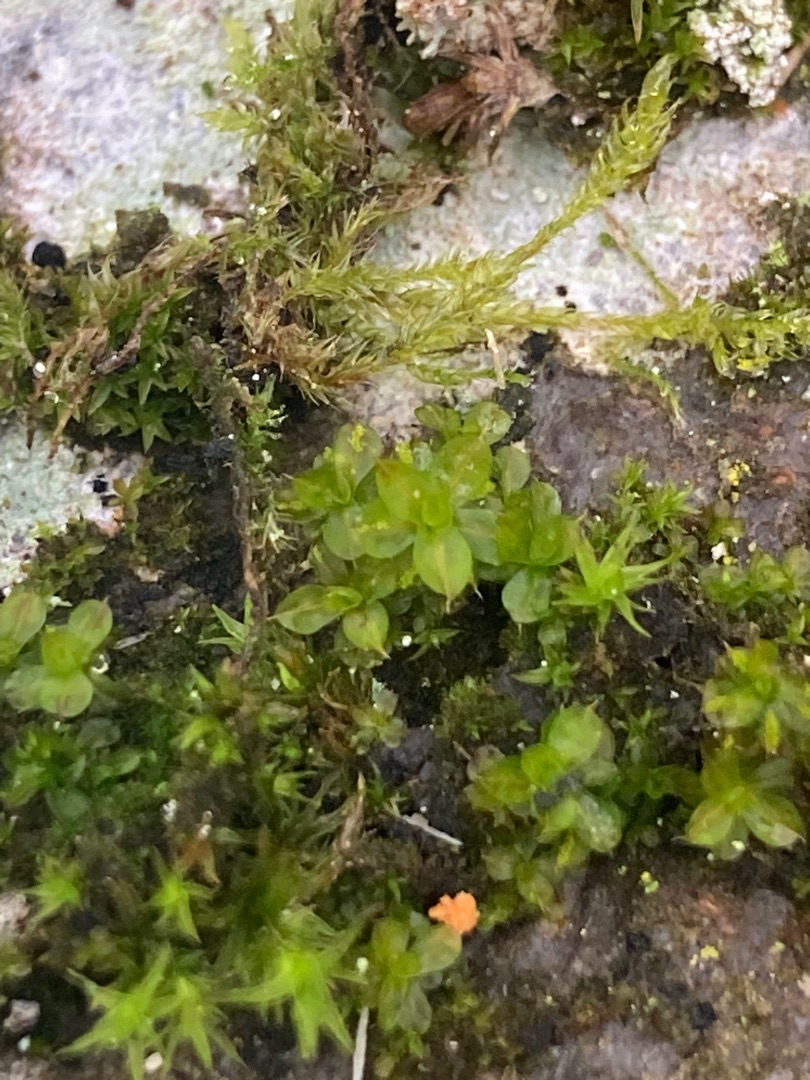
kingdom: Plantae
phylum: Bryophyta
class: Bryopsida
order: Pottiales
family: Pottiaceae
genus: Syntrichia
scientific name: Syntrichia papillosa
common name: Bark-hårstjerne
